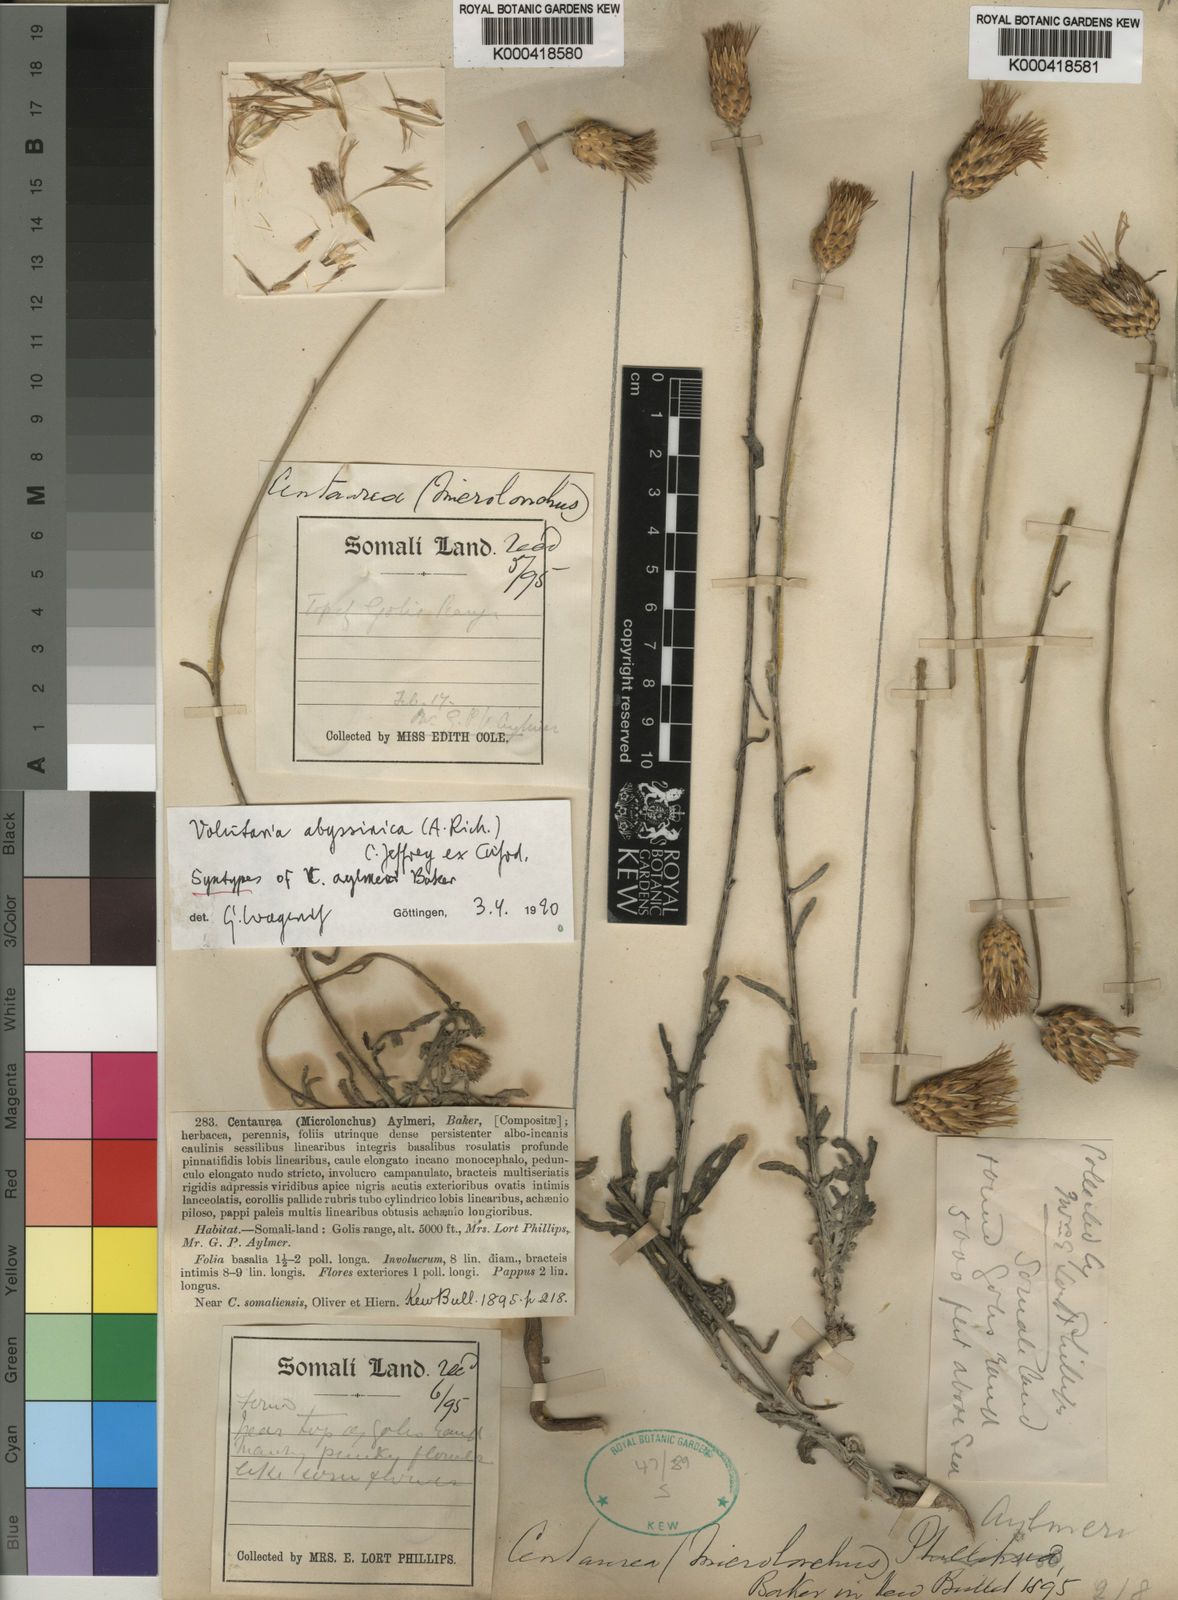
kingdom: Plantae
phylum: Tracheophyta
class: Magnoliopsida
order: Asterales
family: Asteraceae
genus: Volutaria
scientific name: Volutaria
